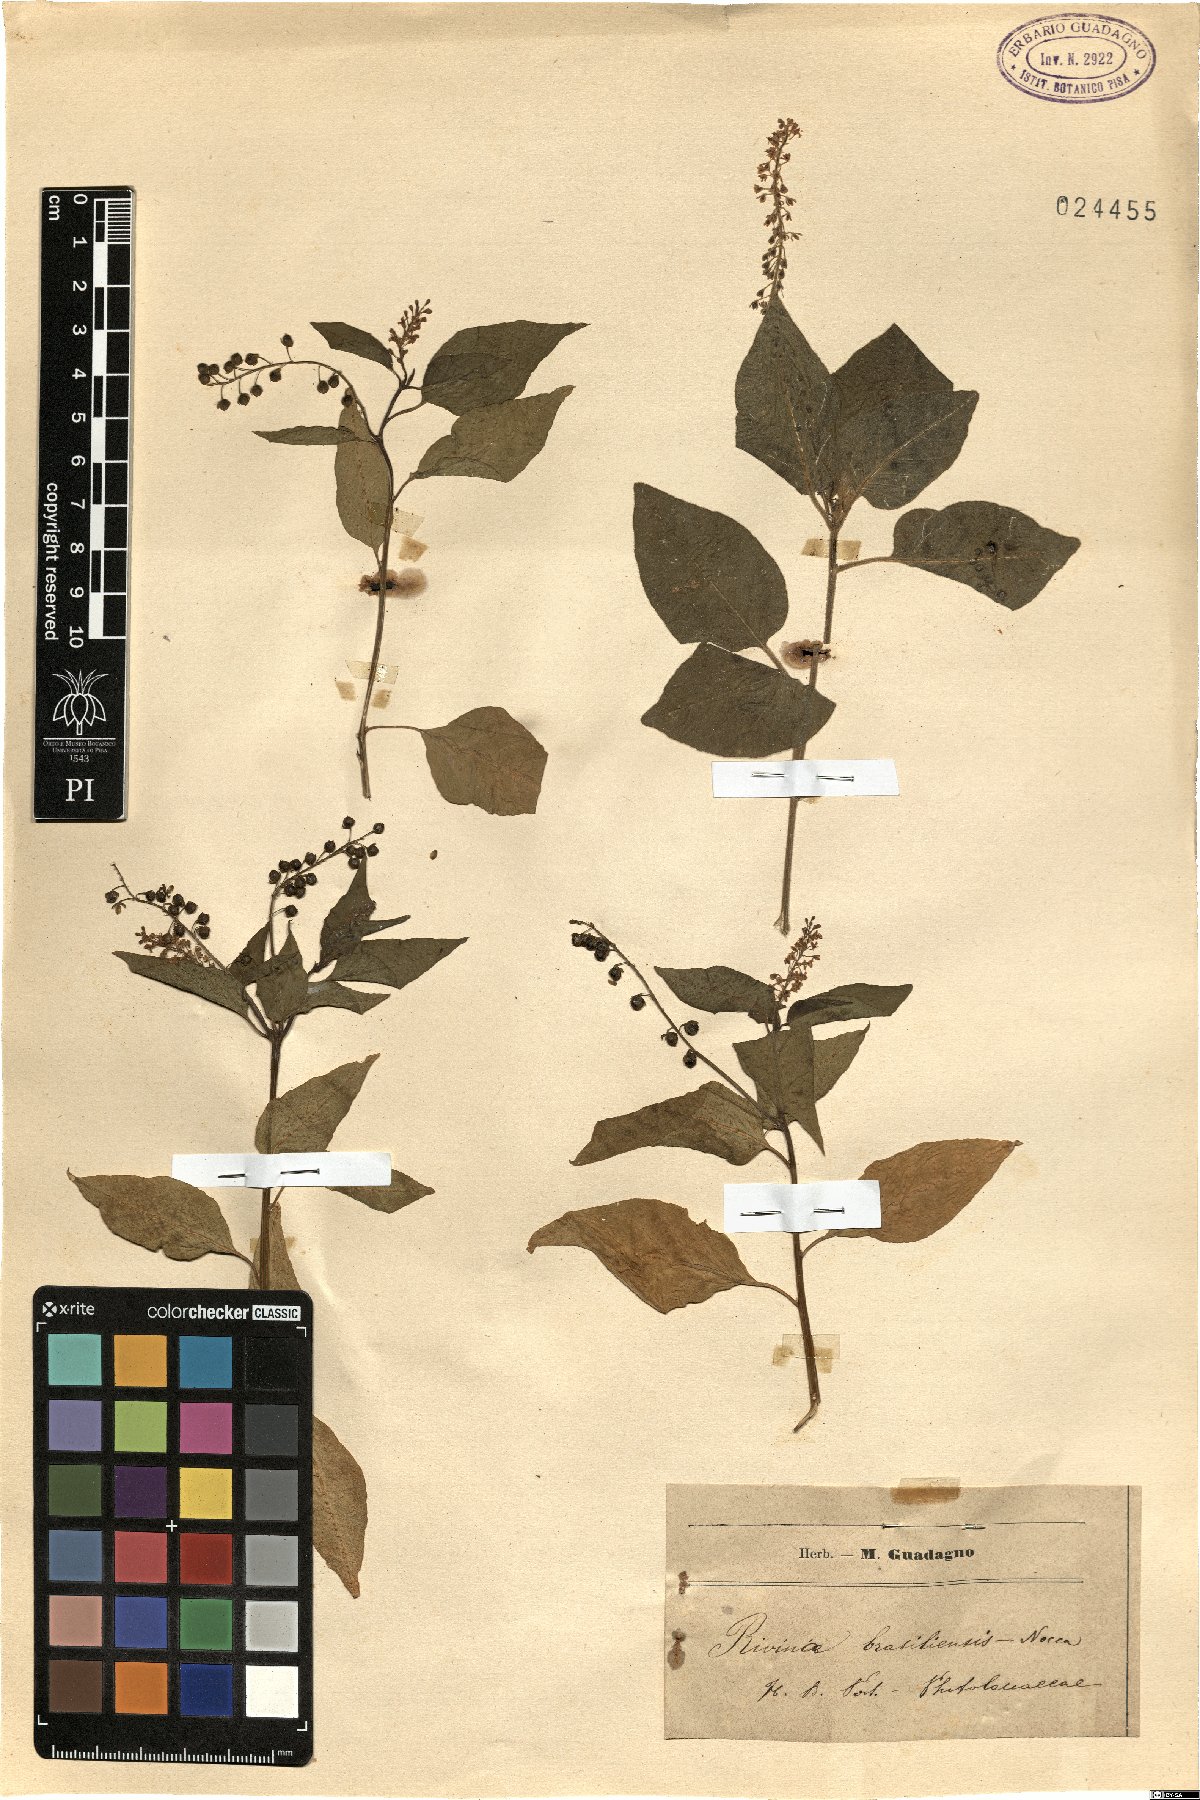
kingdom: Plantae
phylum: Tracheophyta
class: Magnoliopsida
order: Caryophyllales
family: Phytolaccaceae
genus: Rivina
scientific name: Rivina humilis
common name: Rougeplant
